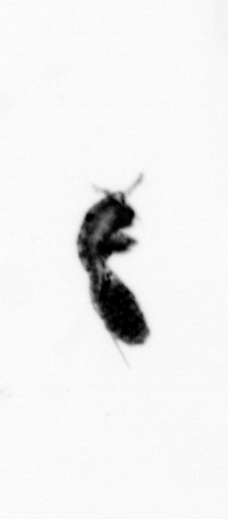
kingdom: Animalia
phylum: Arthropoda
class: Copepoda
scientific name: Copepoda
